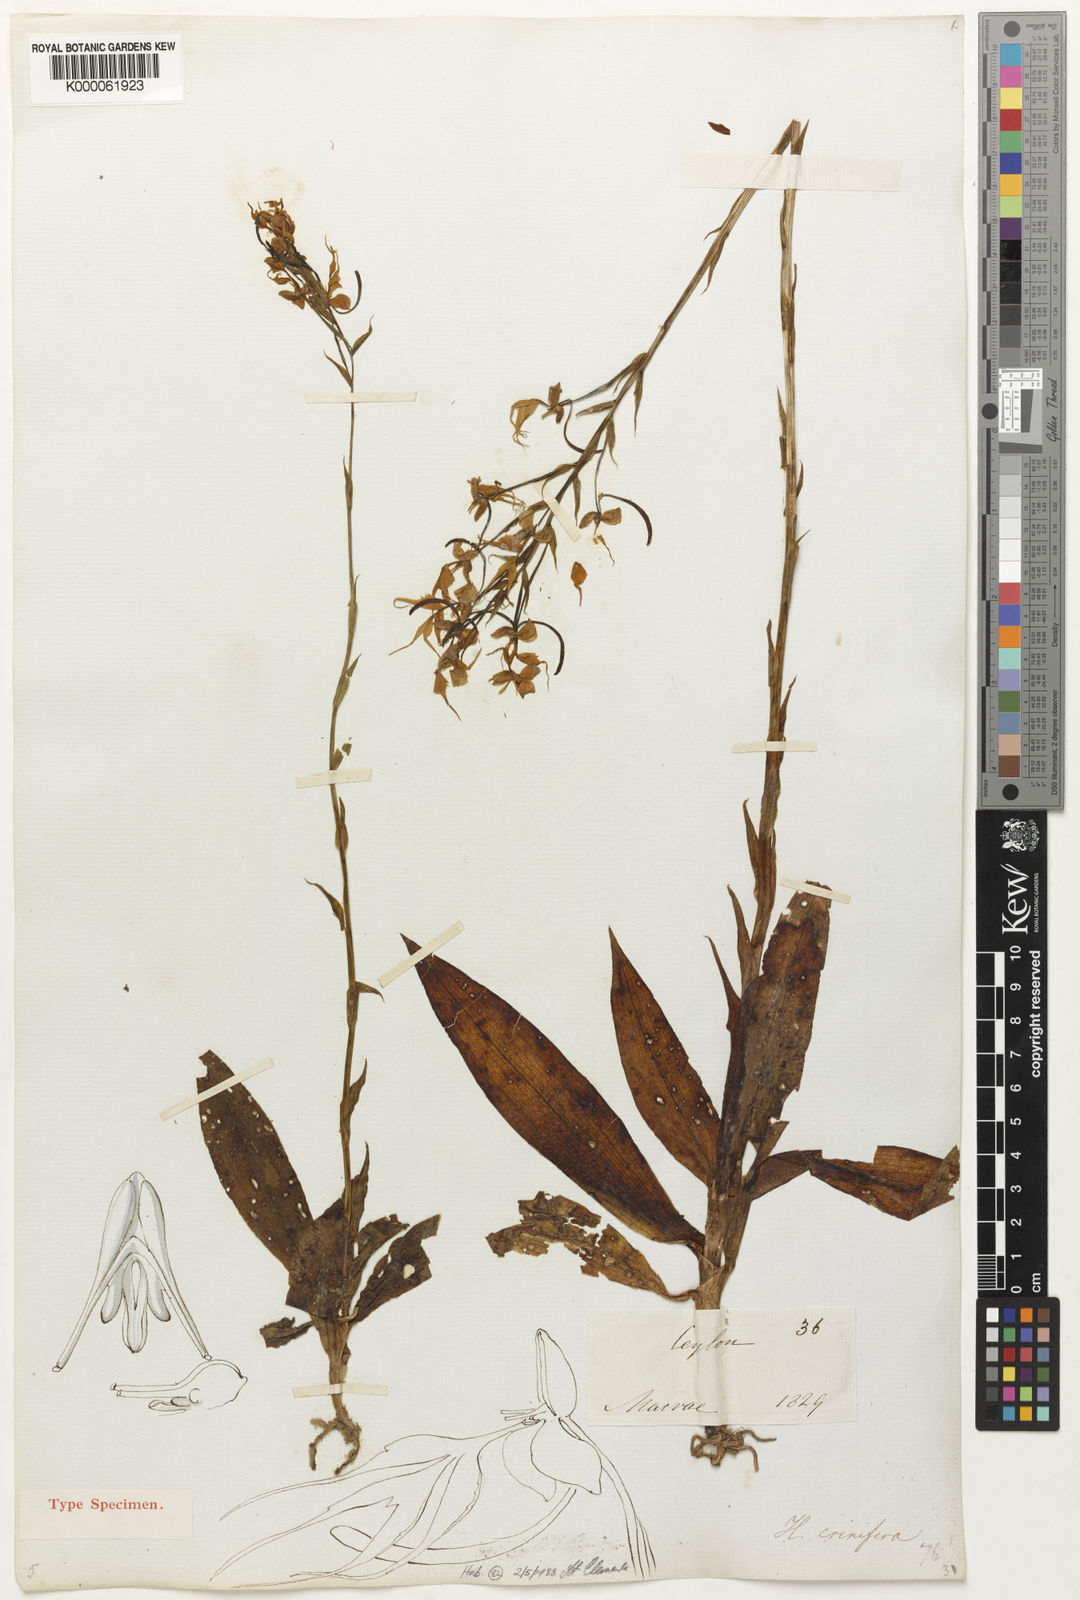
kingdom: Plantae
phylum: Tracheophyta
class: Liliopsida
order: Asparagales
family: Orchidaceae
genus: Habenaria
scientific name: Habenaria crinifera
